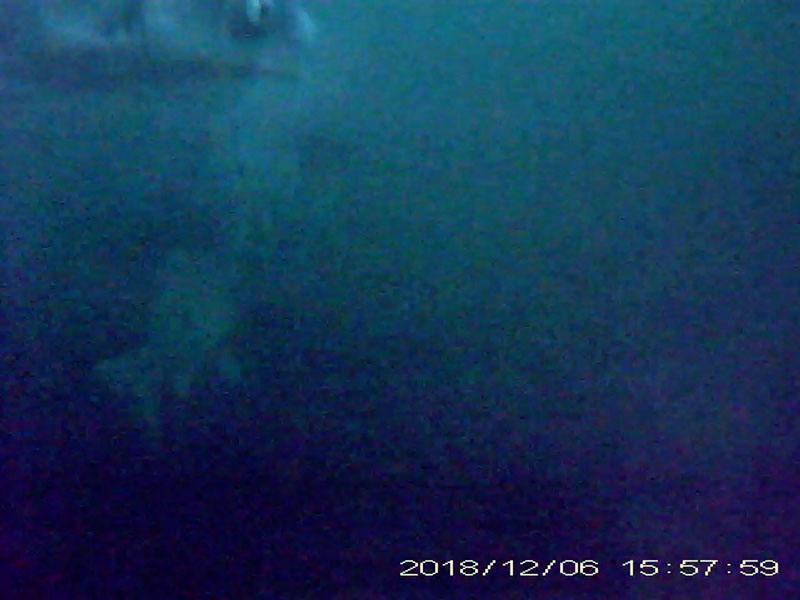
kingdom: Animalia
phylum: Chordata
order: Cypriniformes
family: Cyprinidae
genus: Carassius
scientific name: Carassius cuvieri
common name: ゲンゴロウブナ
